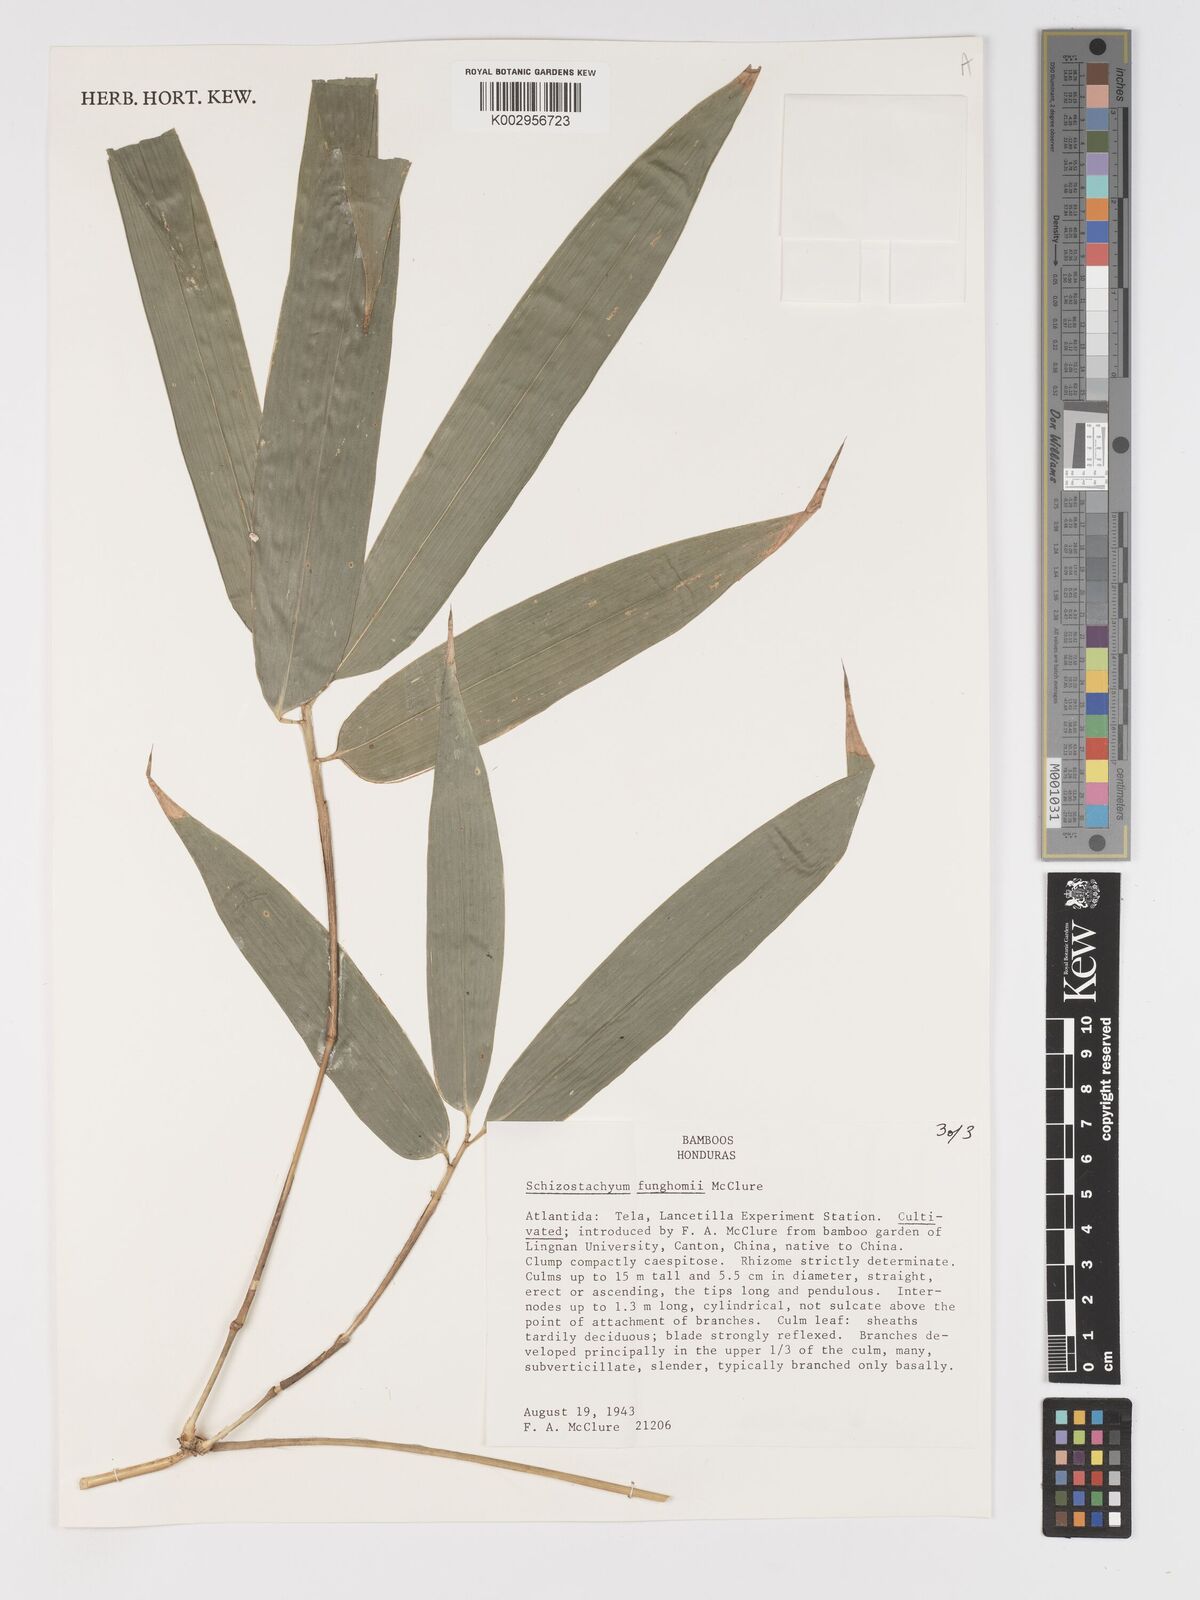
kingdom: Plantae
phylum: Tracheophyta
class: Liliopsida
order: Poales
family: Poaceae
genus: Schizostachyum
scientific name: Schizostachyum funghomii
